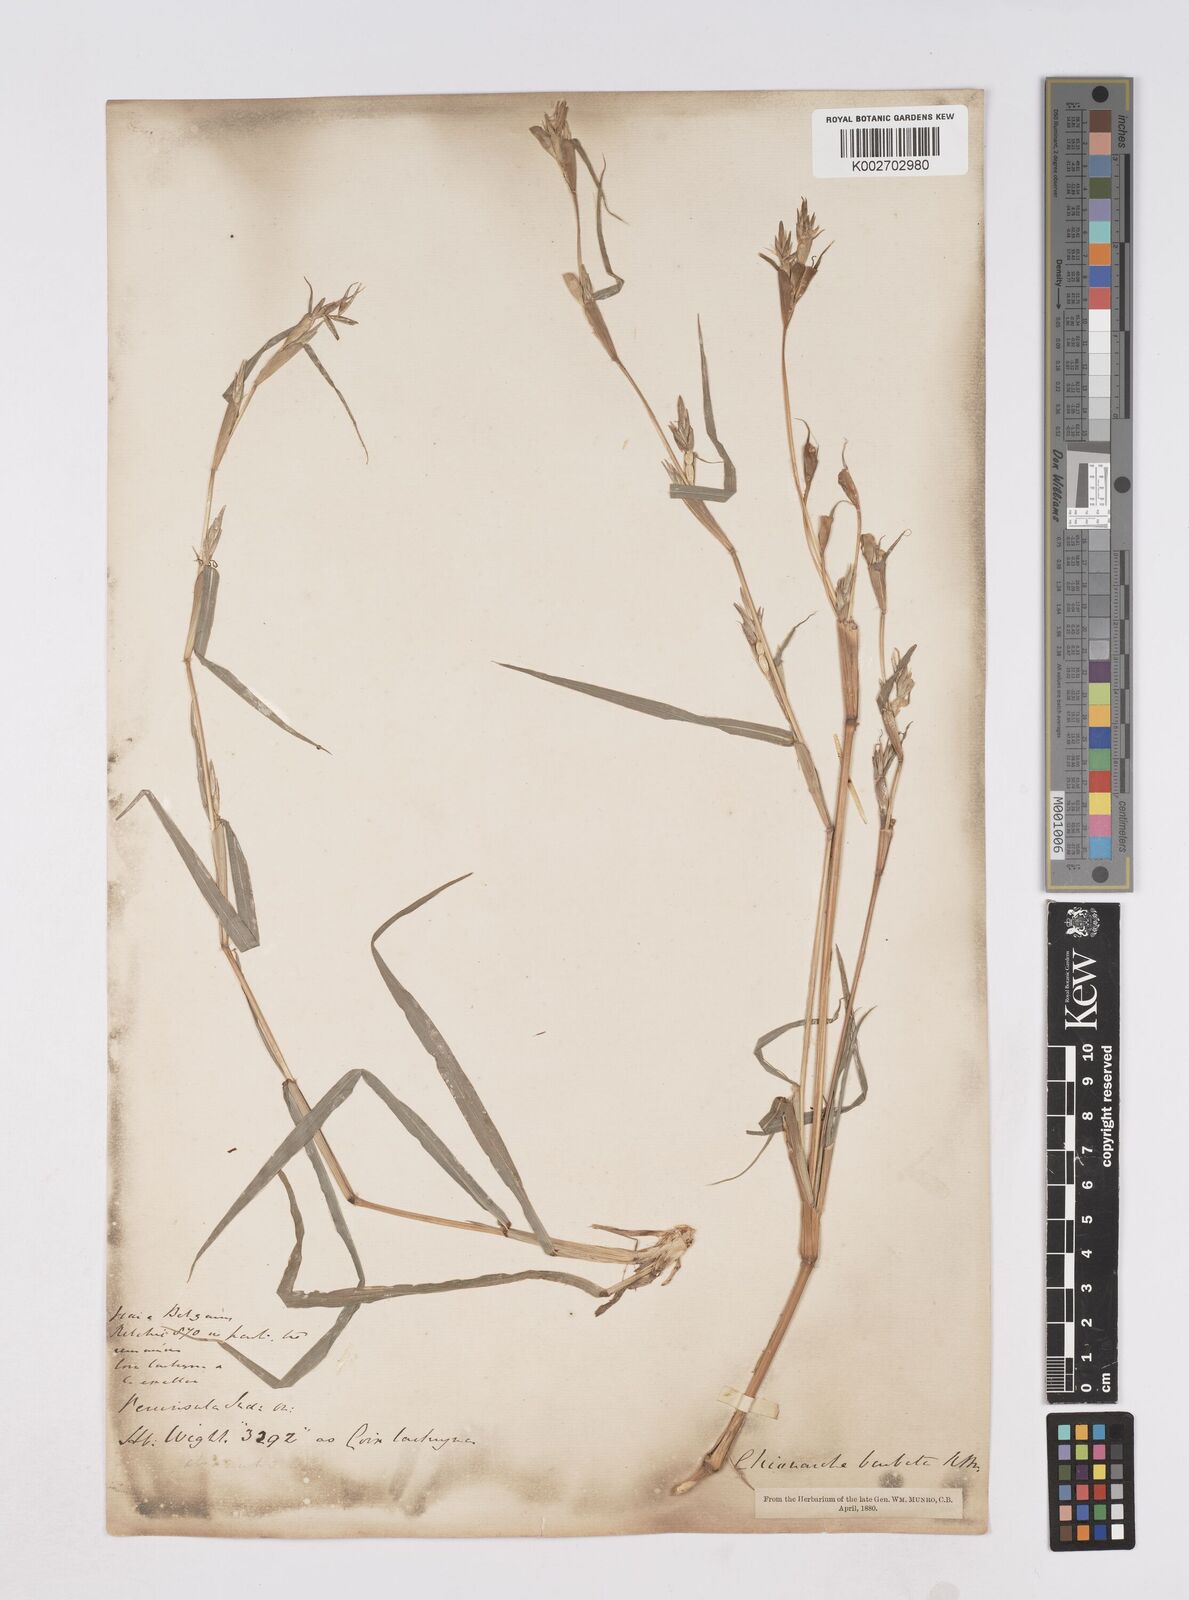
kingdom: Plantae
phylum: Tracheophyta
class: Liliopsida
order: Poales
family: Poaceae
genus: Polytoca
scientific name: Polytoca gigantea
